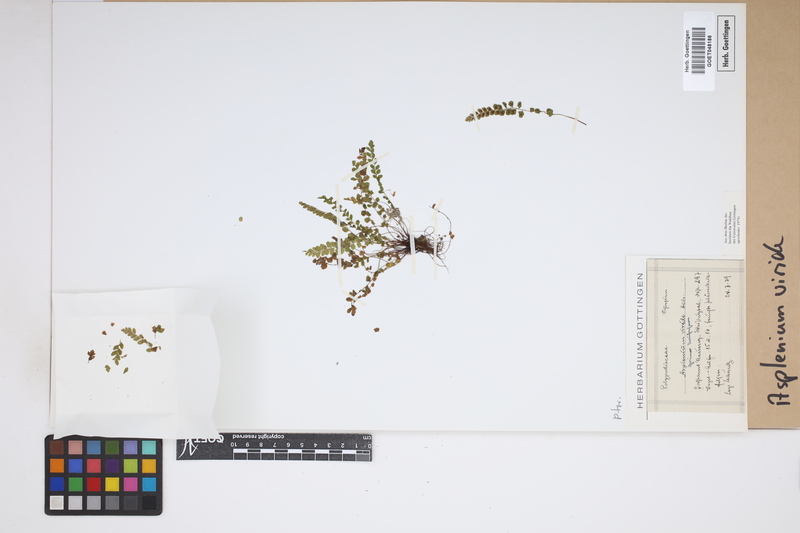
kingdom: Plantae
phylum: Tracheophyta
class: Polypodiopsida
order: Polypodiales
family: Aspleniaceae
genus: Asplenium
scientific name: Asplenium viride
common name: Green spleenwort
